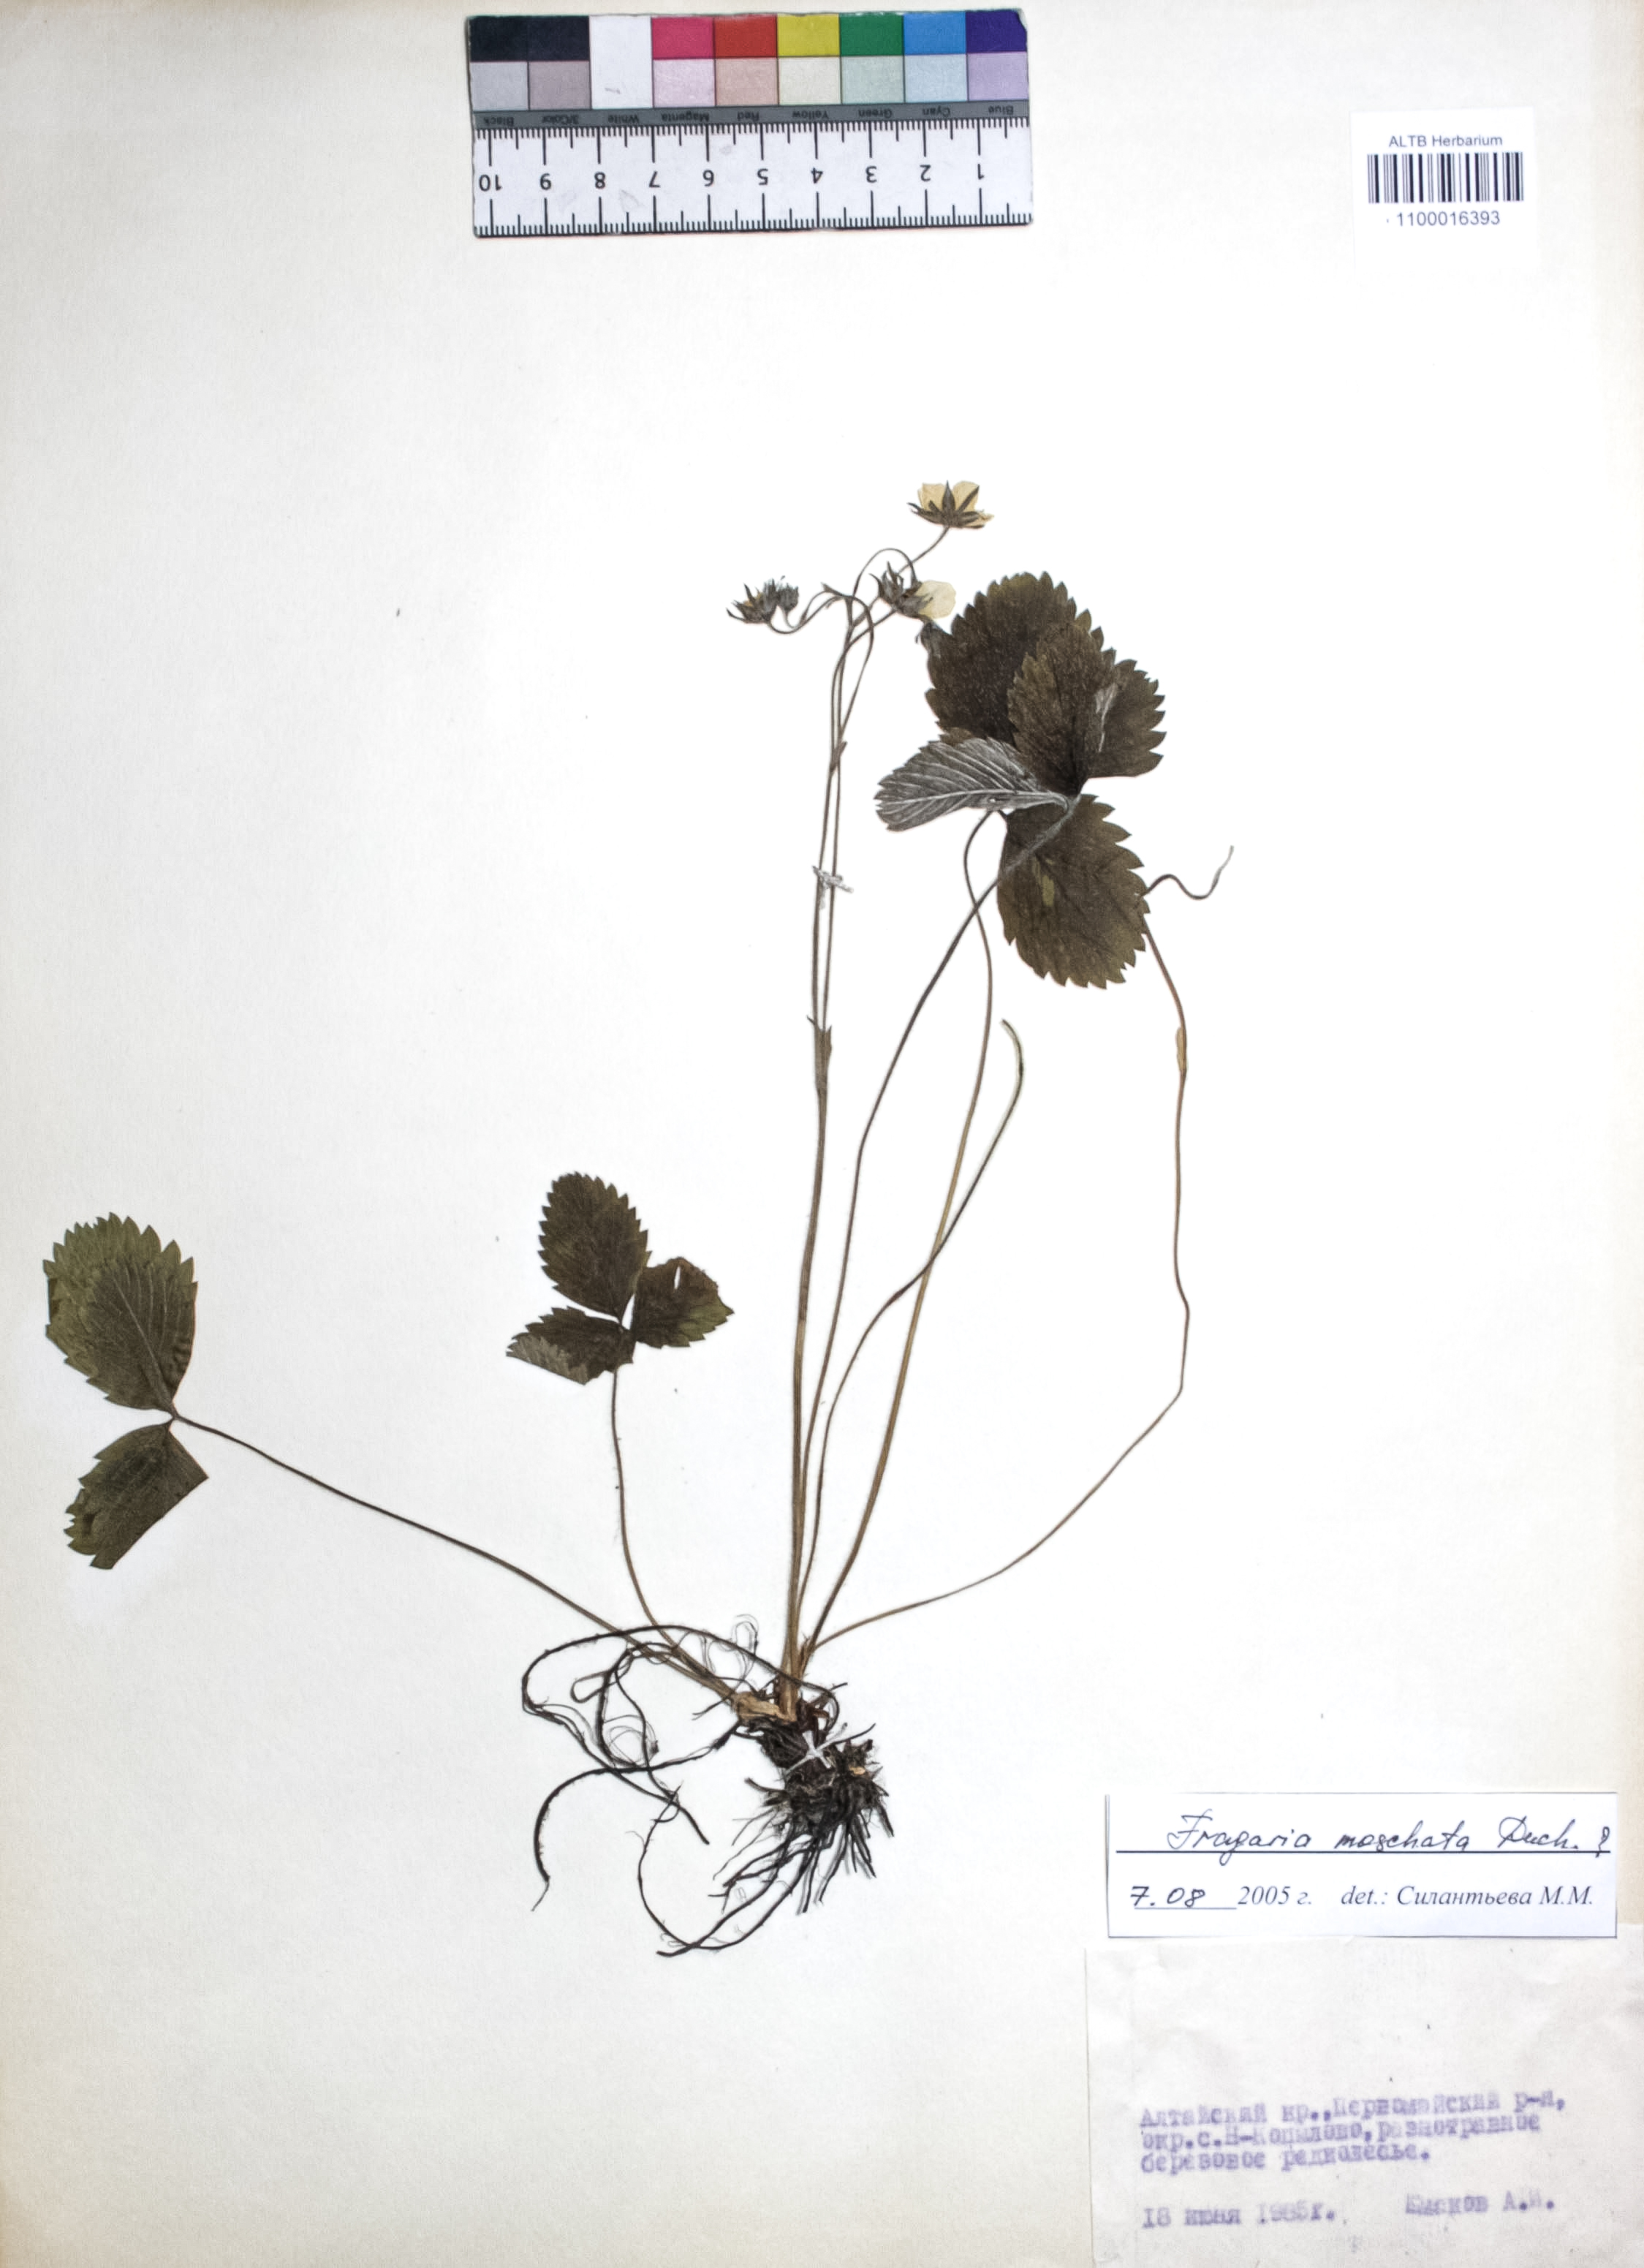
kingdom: Plantae
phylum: Tracheophyta
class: Magnoliopsida
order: Rosales
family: Rosaceae
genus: Fragaria
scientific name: Fragaria moschata
